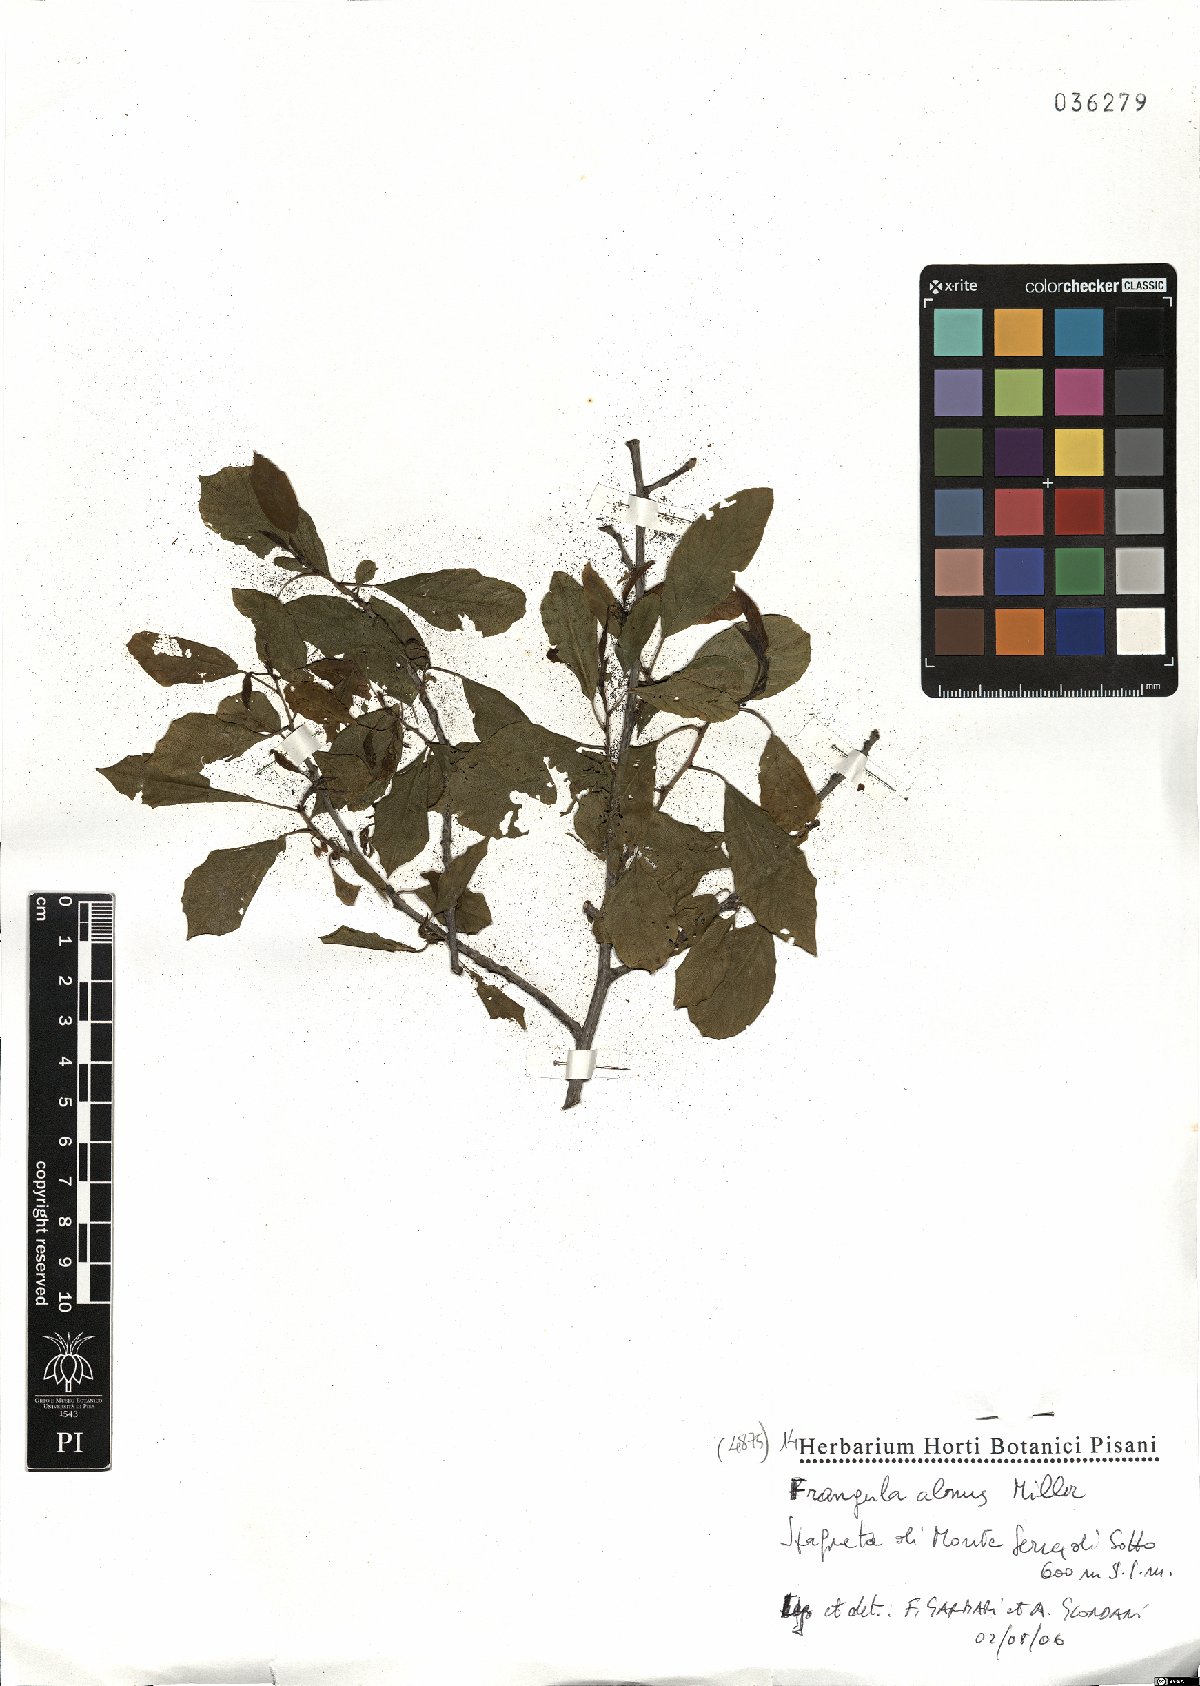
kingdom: Plantae
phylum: Tracheophyta
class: Magnoliopsida
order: Rosales
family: Rhamnaceae
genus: Frangula
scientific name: Frangula alnus
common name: Alder buckthorn
